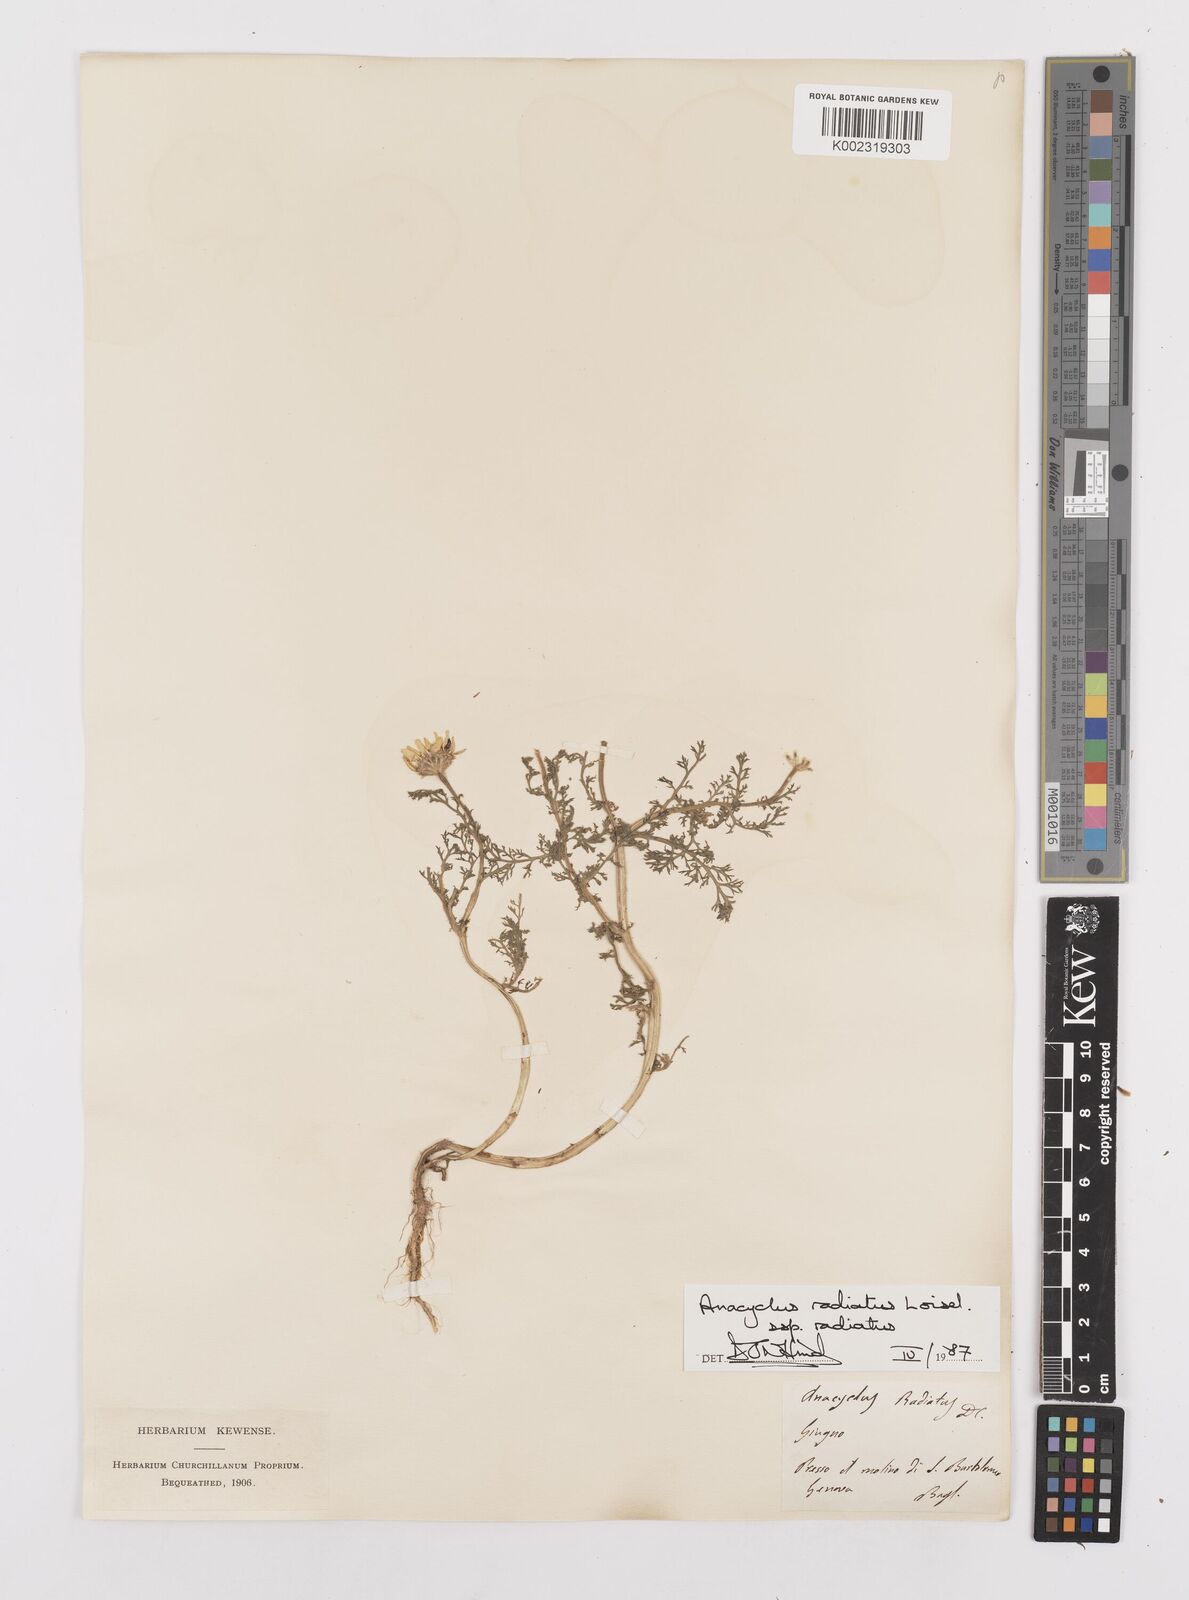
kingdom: Plantae
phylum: Tracheophyta
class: Magnoliopsida
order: Asterales
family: Asteraceae
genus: Anacyclus
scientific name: Anacyclus radiatus
